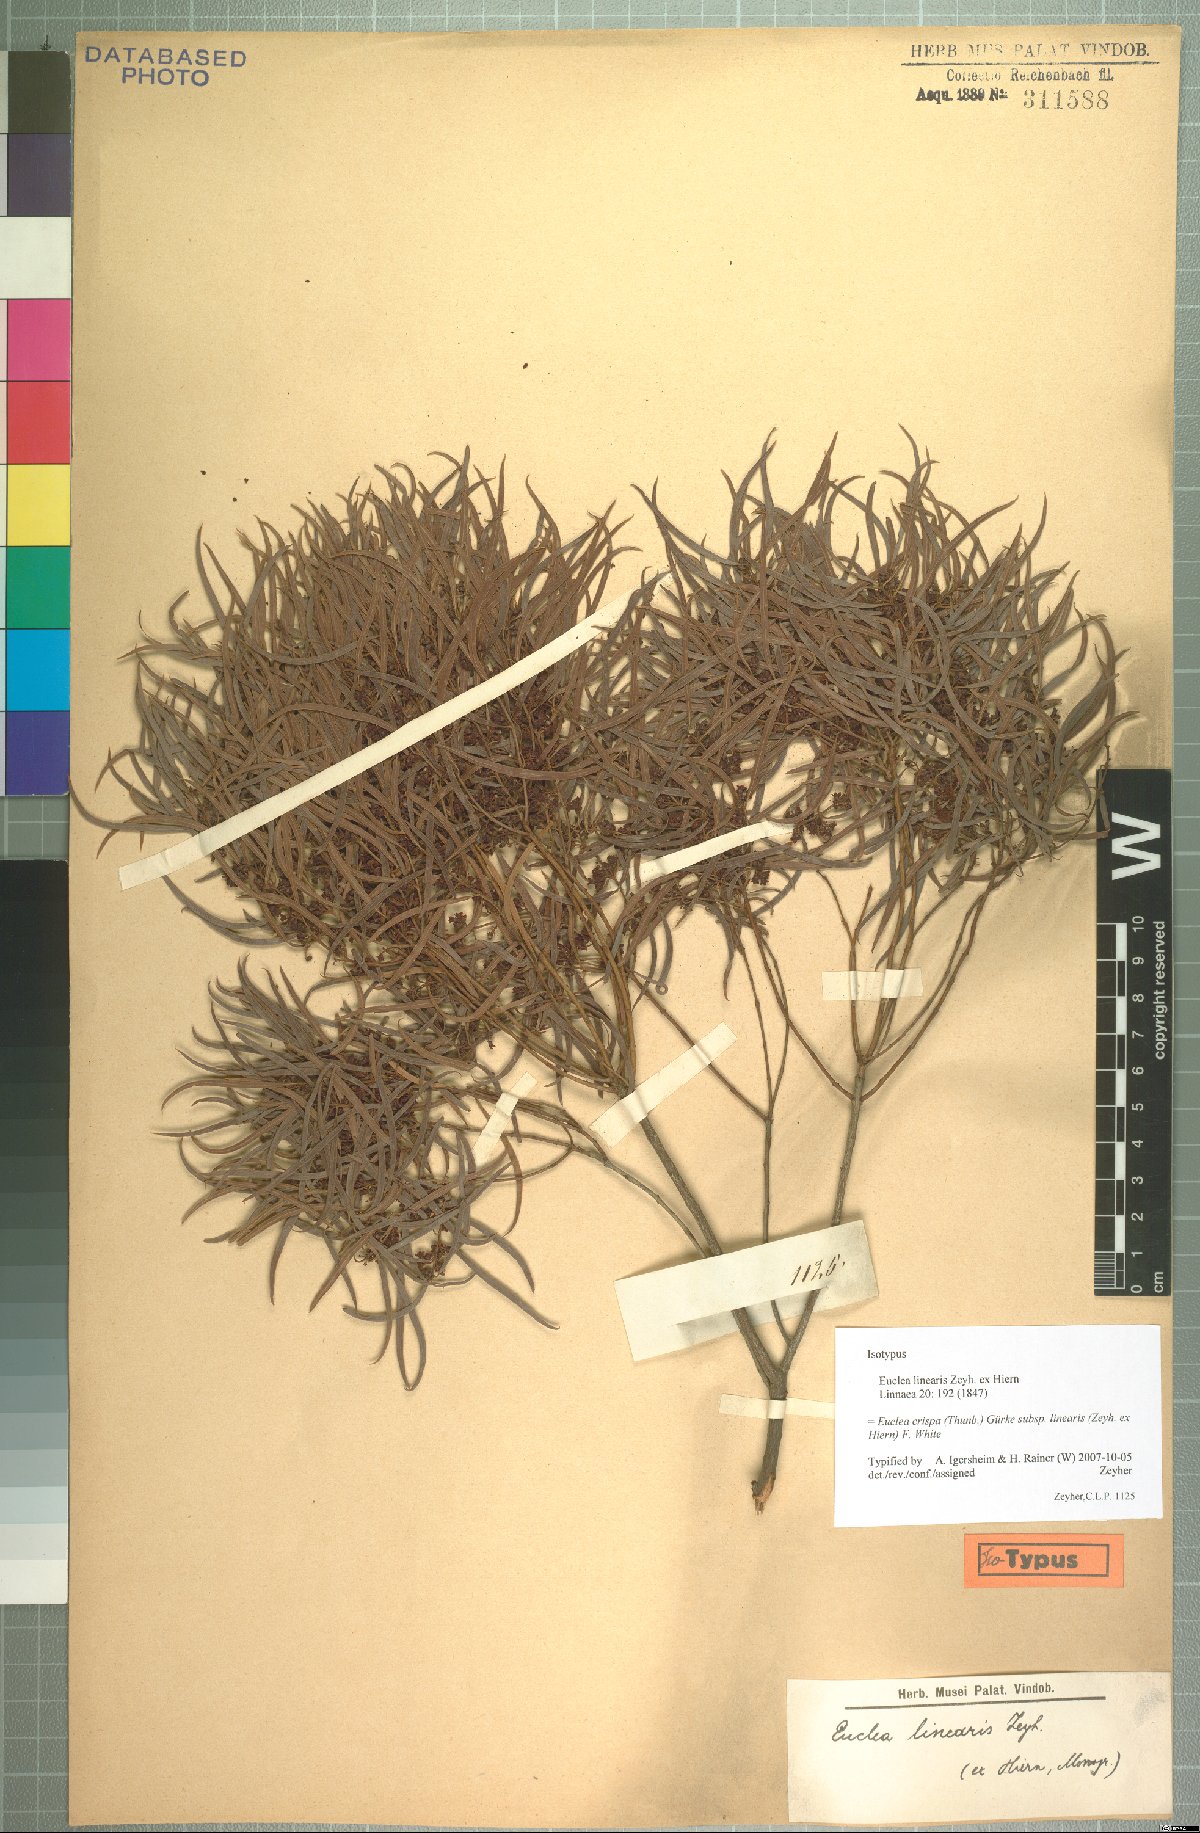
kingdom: Plantae
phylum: Tracheophyta
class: Magnoliopsida
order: Ericales
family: Ebenaceae
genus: Euclea
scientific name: Euclea crispa
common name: Blue guarri
